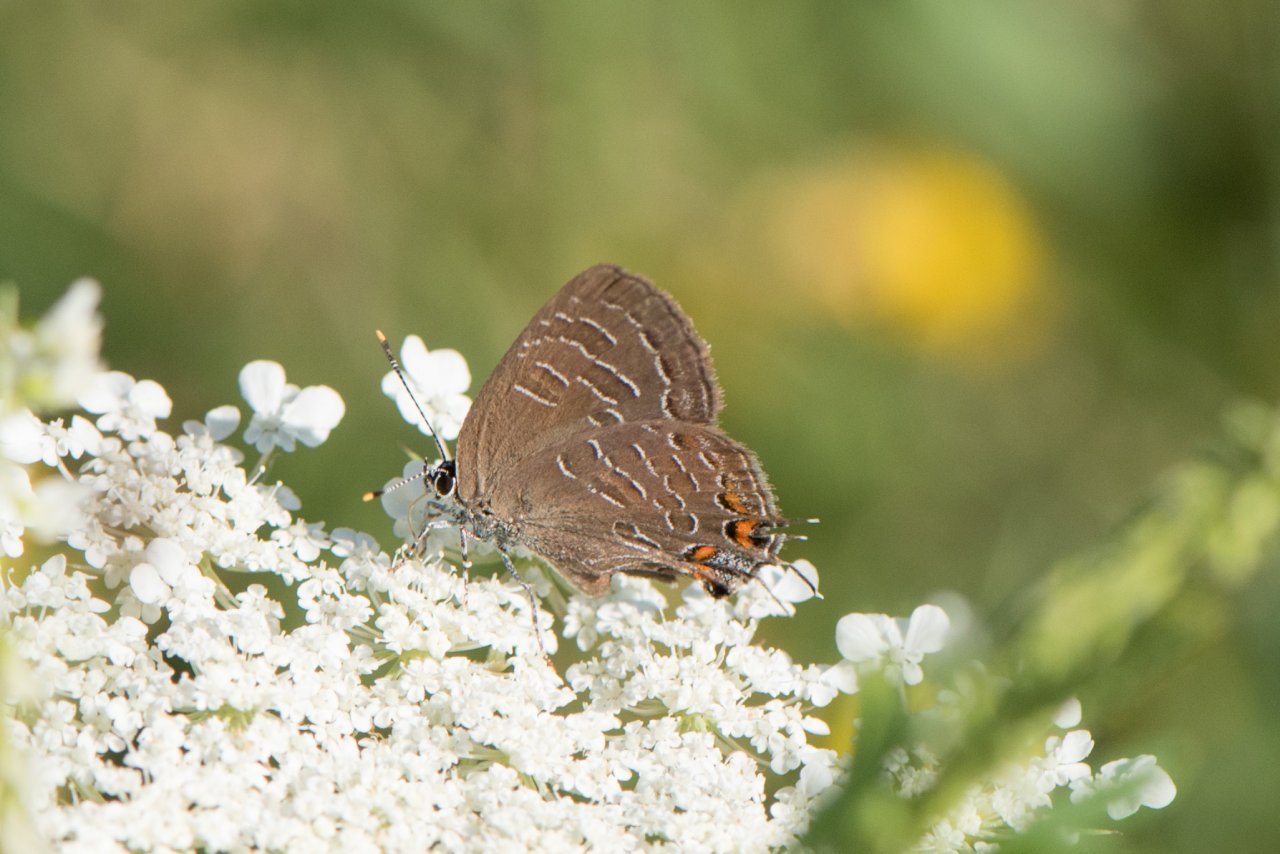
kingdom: Animalia
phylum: Arthropoda
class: Insecta
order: Lepidoptera
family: Lycaenidae
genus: Satyrium
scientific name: Satyrium liparops
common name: Striped Hairstreak
